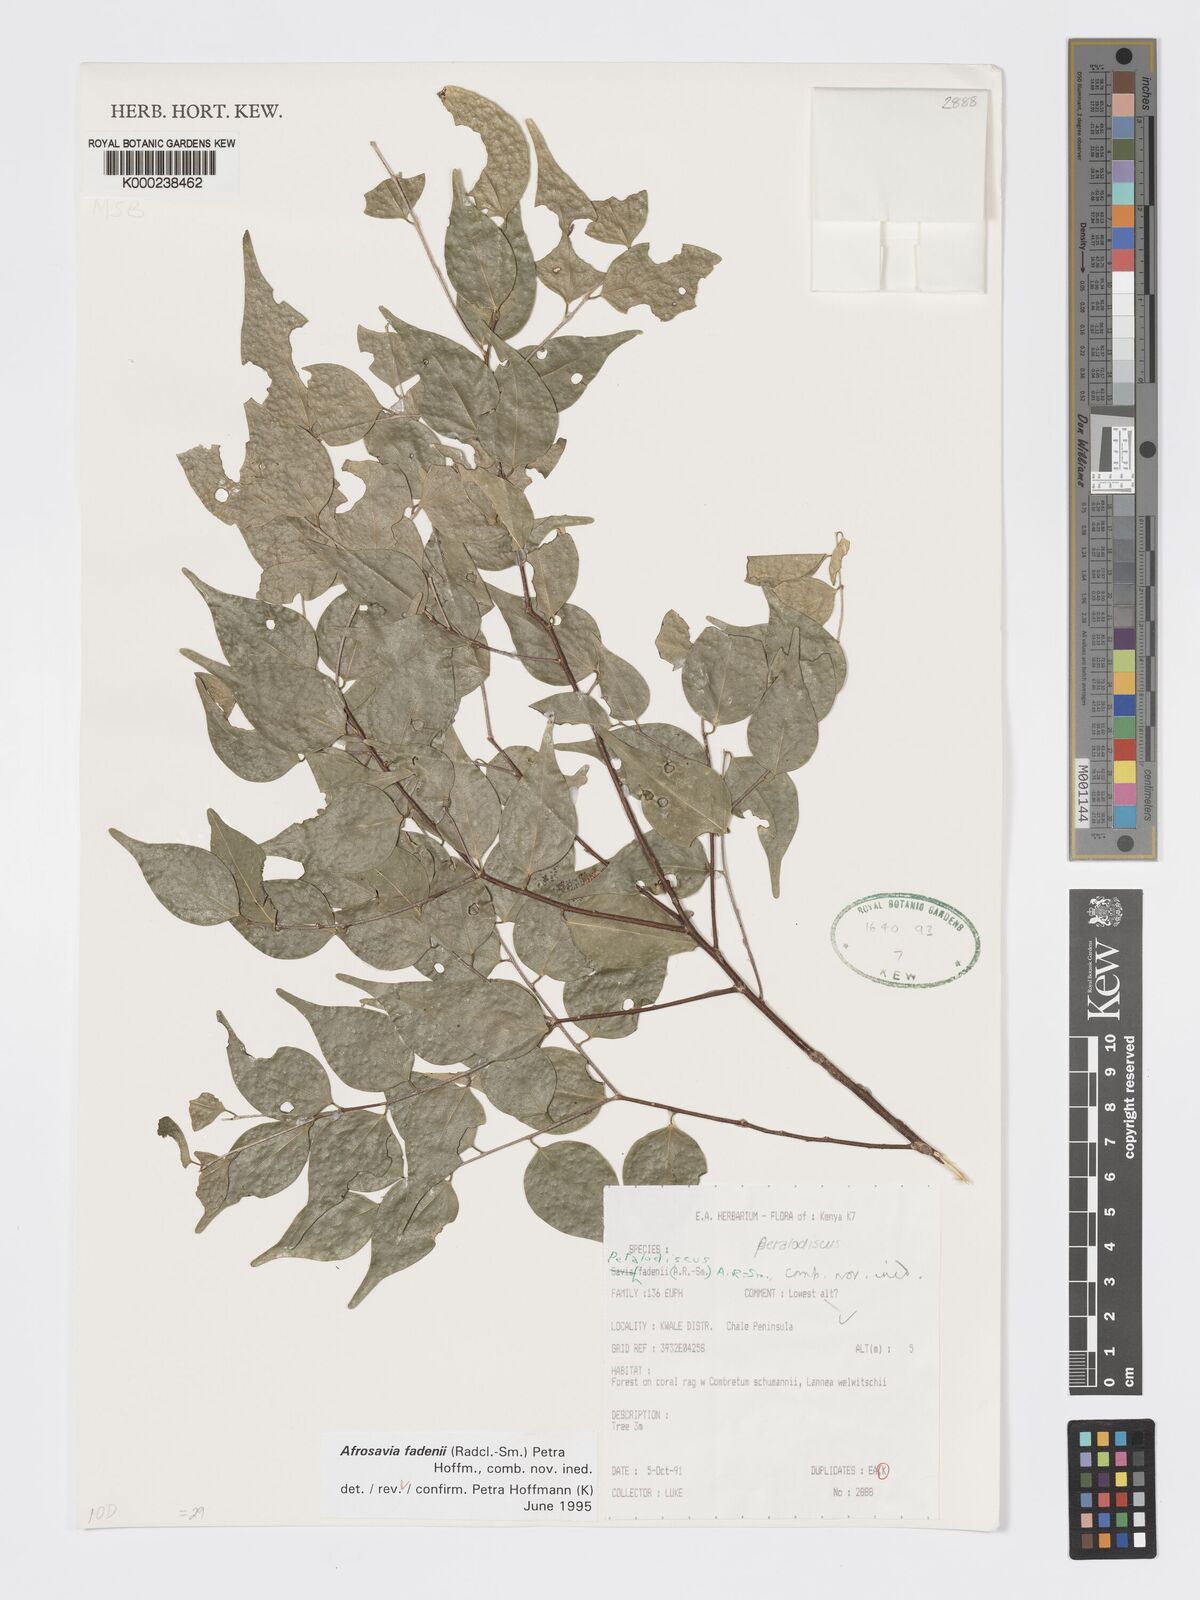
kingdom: Plantae
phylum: Tracheophyta
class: Magnoliopsida
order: Malpighiales
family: Phyllanthaceae
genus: Wielandia
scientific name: Wielandia fadenii
